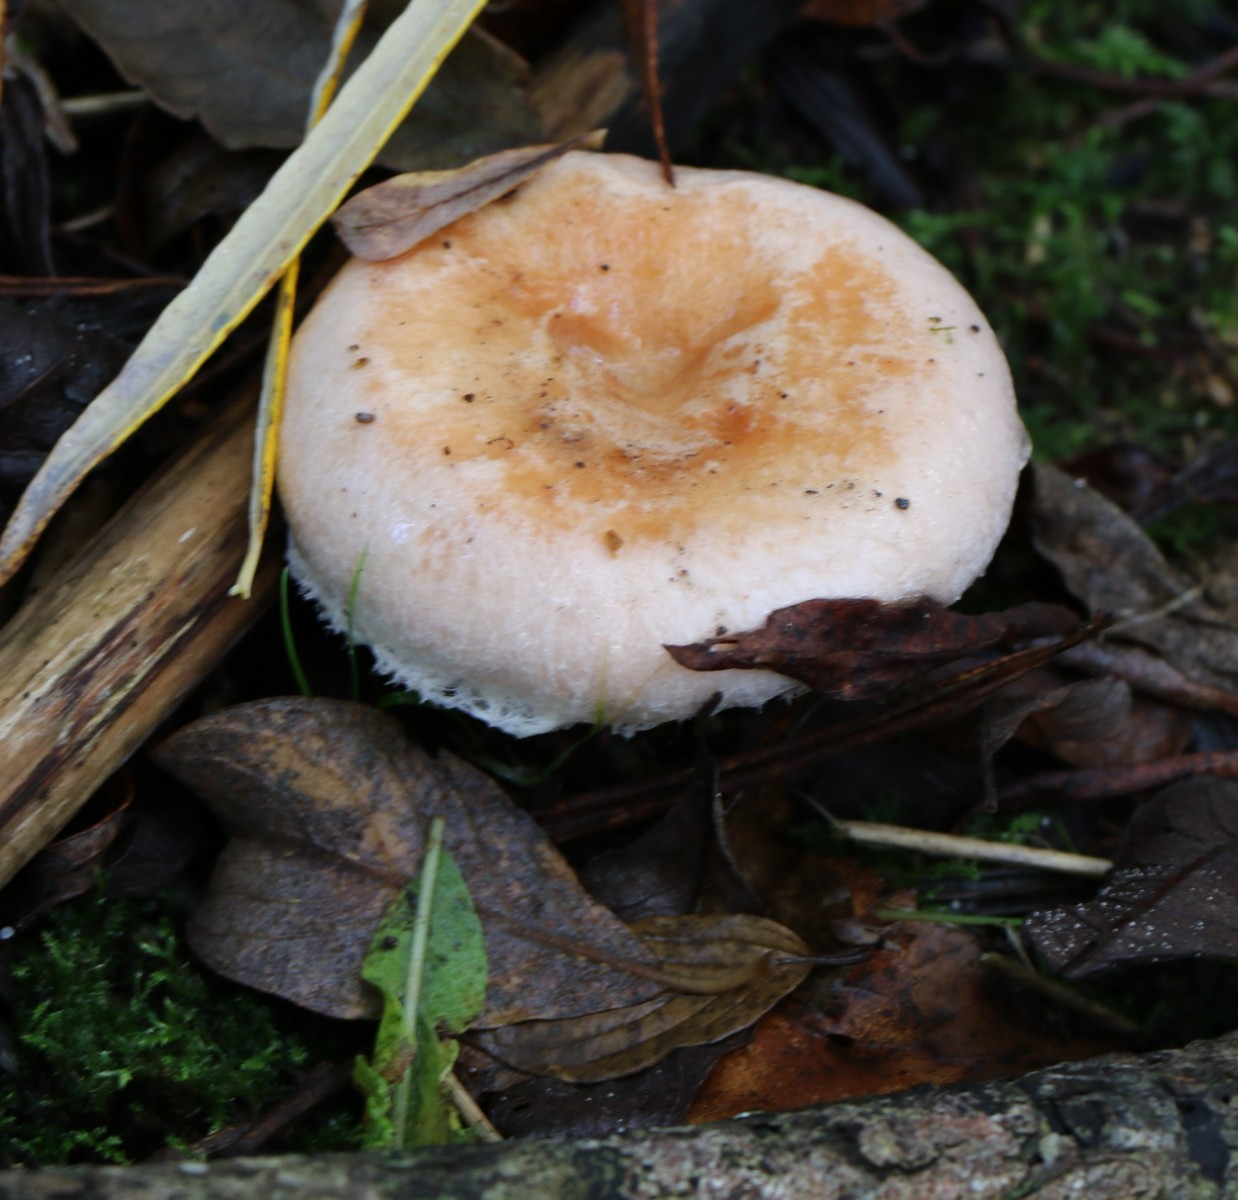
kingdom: Fungi
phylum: Basidiomycota
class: Agaricomycetes
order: Russulales
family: Russulaceae
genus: Lactarius
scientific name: Lactarius scoticus
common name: tørve-mælkehat
